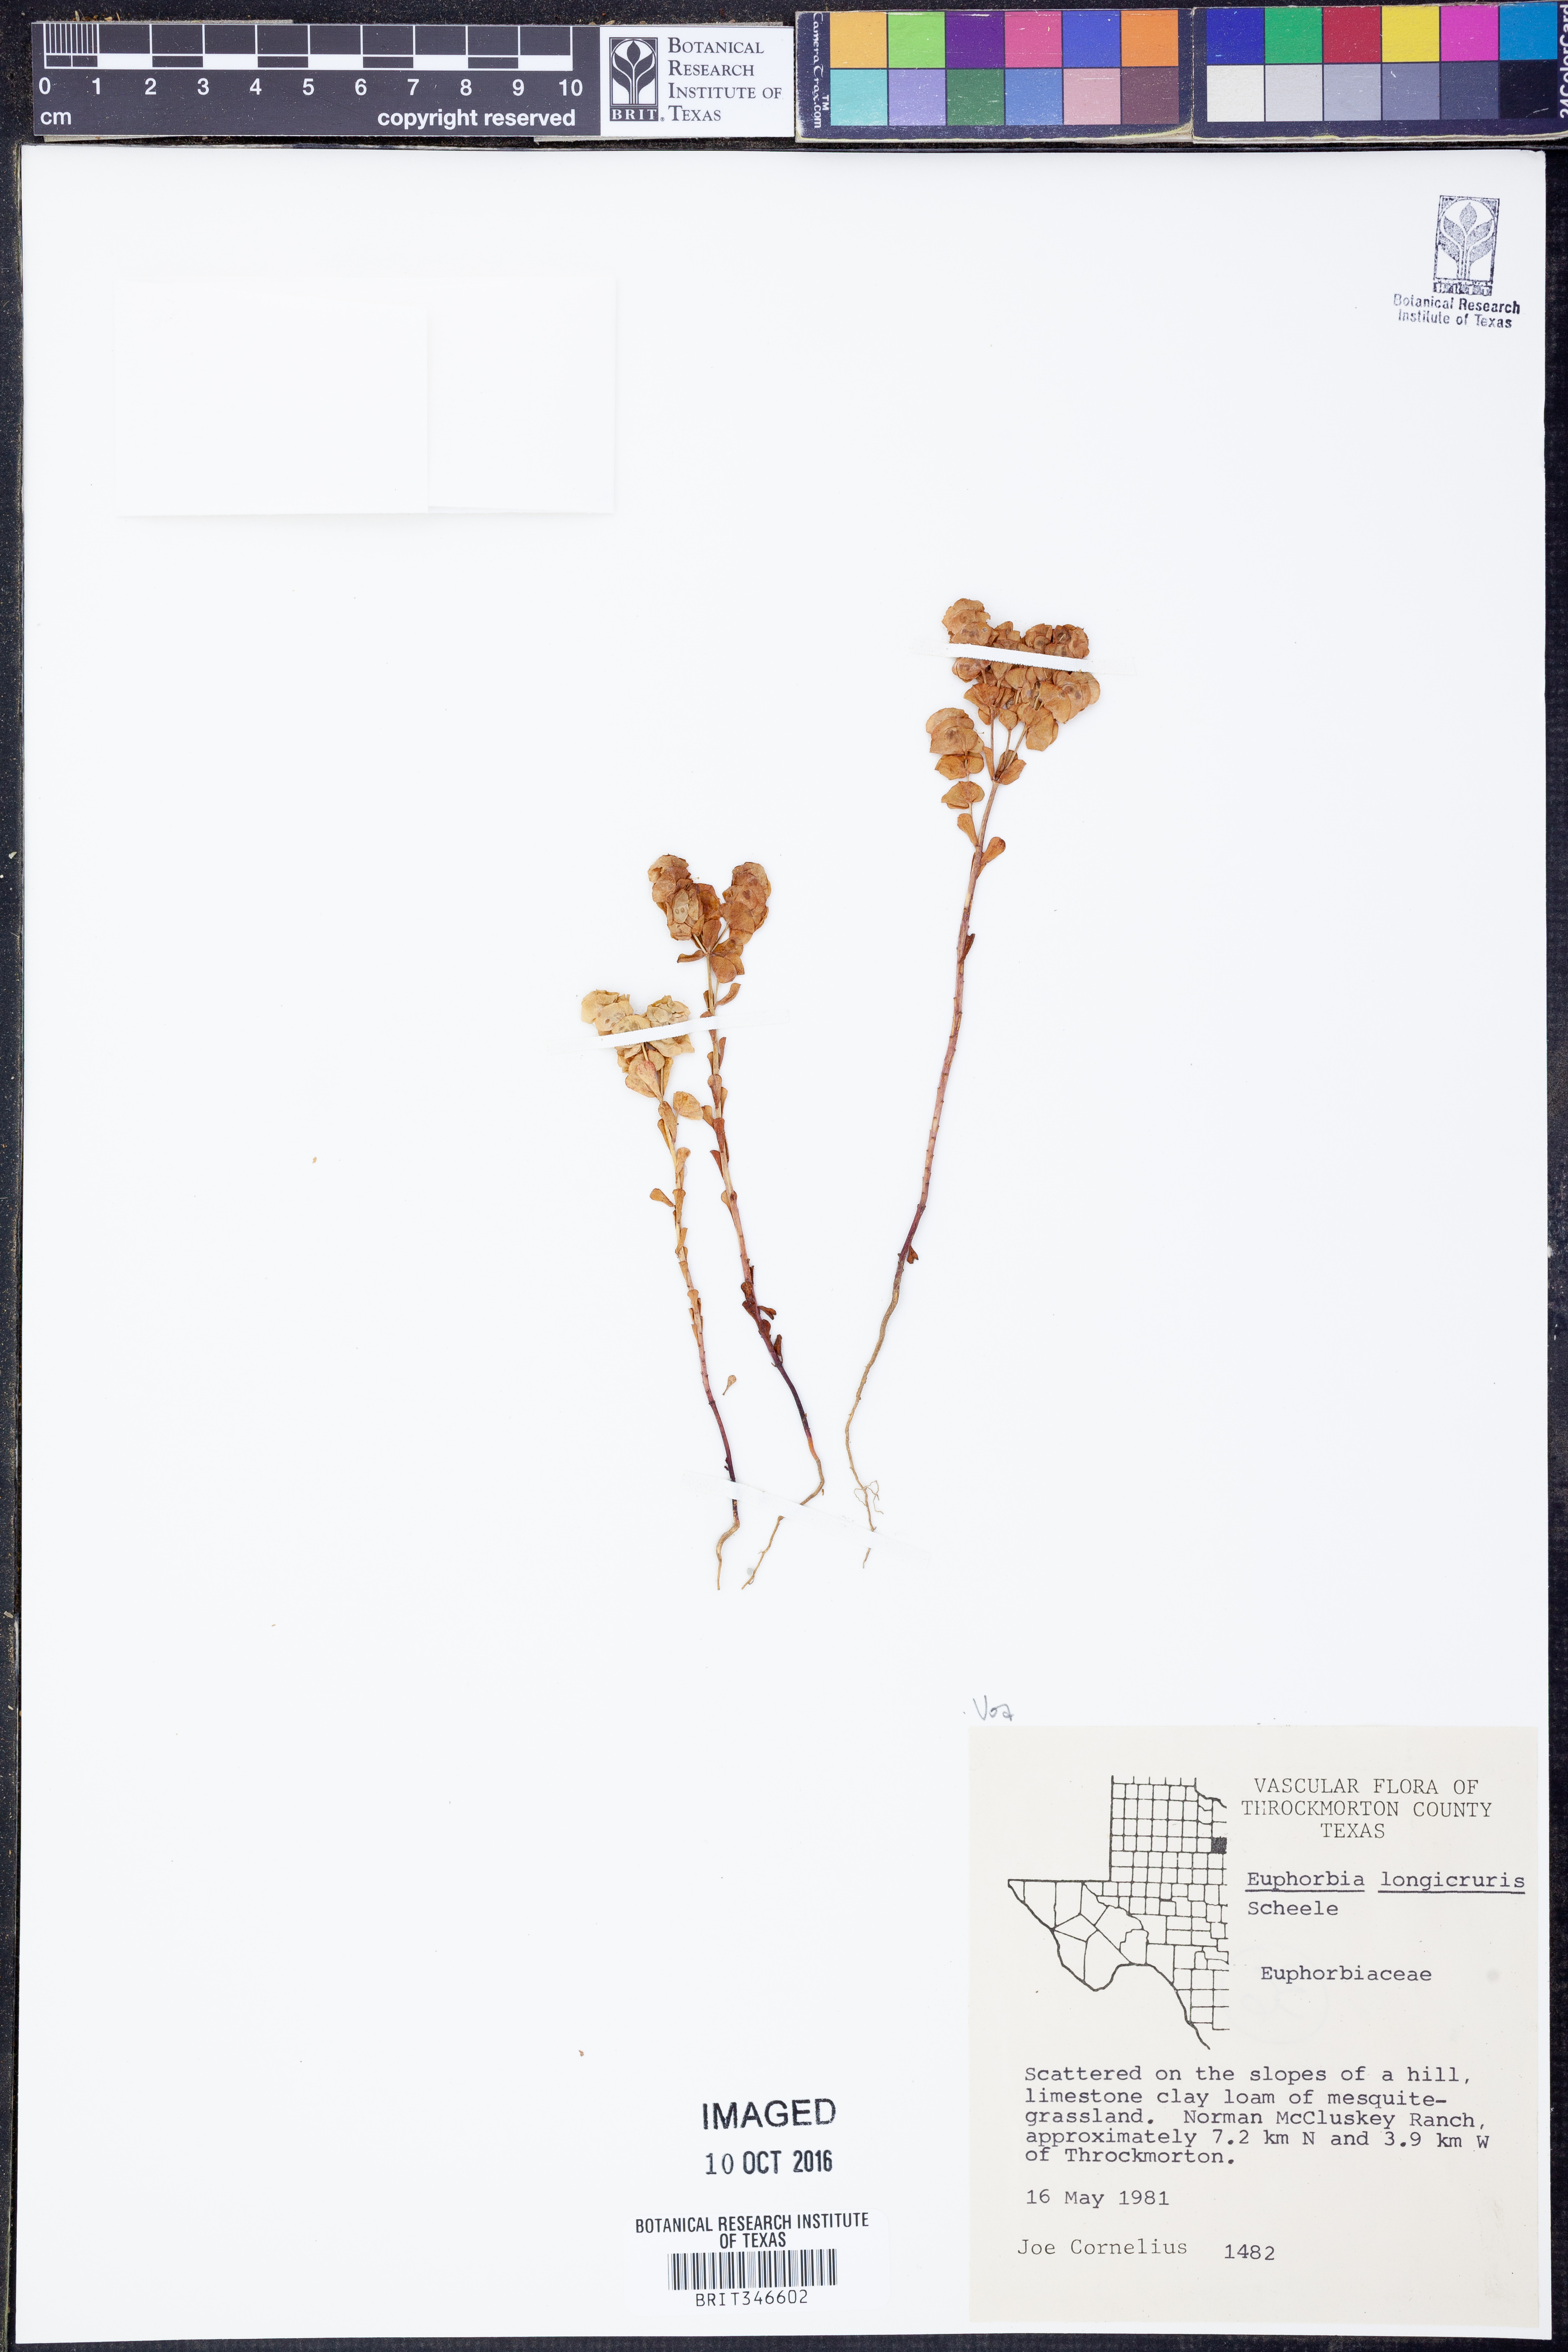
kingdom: Plantae
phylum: Tracheophyta
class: Magnoliopsida
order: Malpighiales
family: Euphorbiaceae
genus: Euphorbia
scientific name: Euphorbia longicruris
